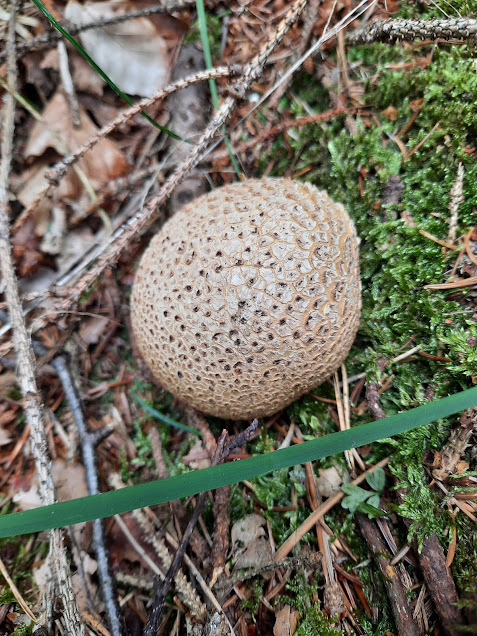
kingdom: Fungi
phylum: Basidiomycota
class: Agaricomycetes
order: Boletales
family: Sclerodermataceae
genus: Scleroderma
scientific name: Scleroderma citrinum
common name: almindelig bruskbold
